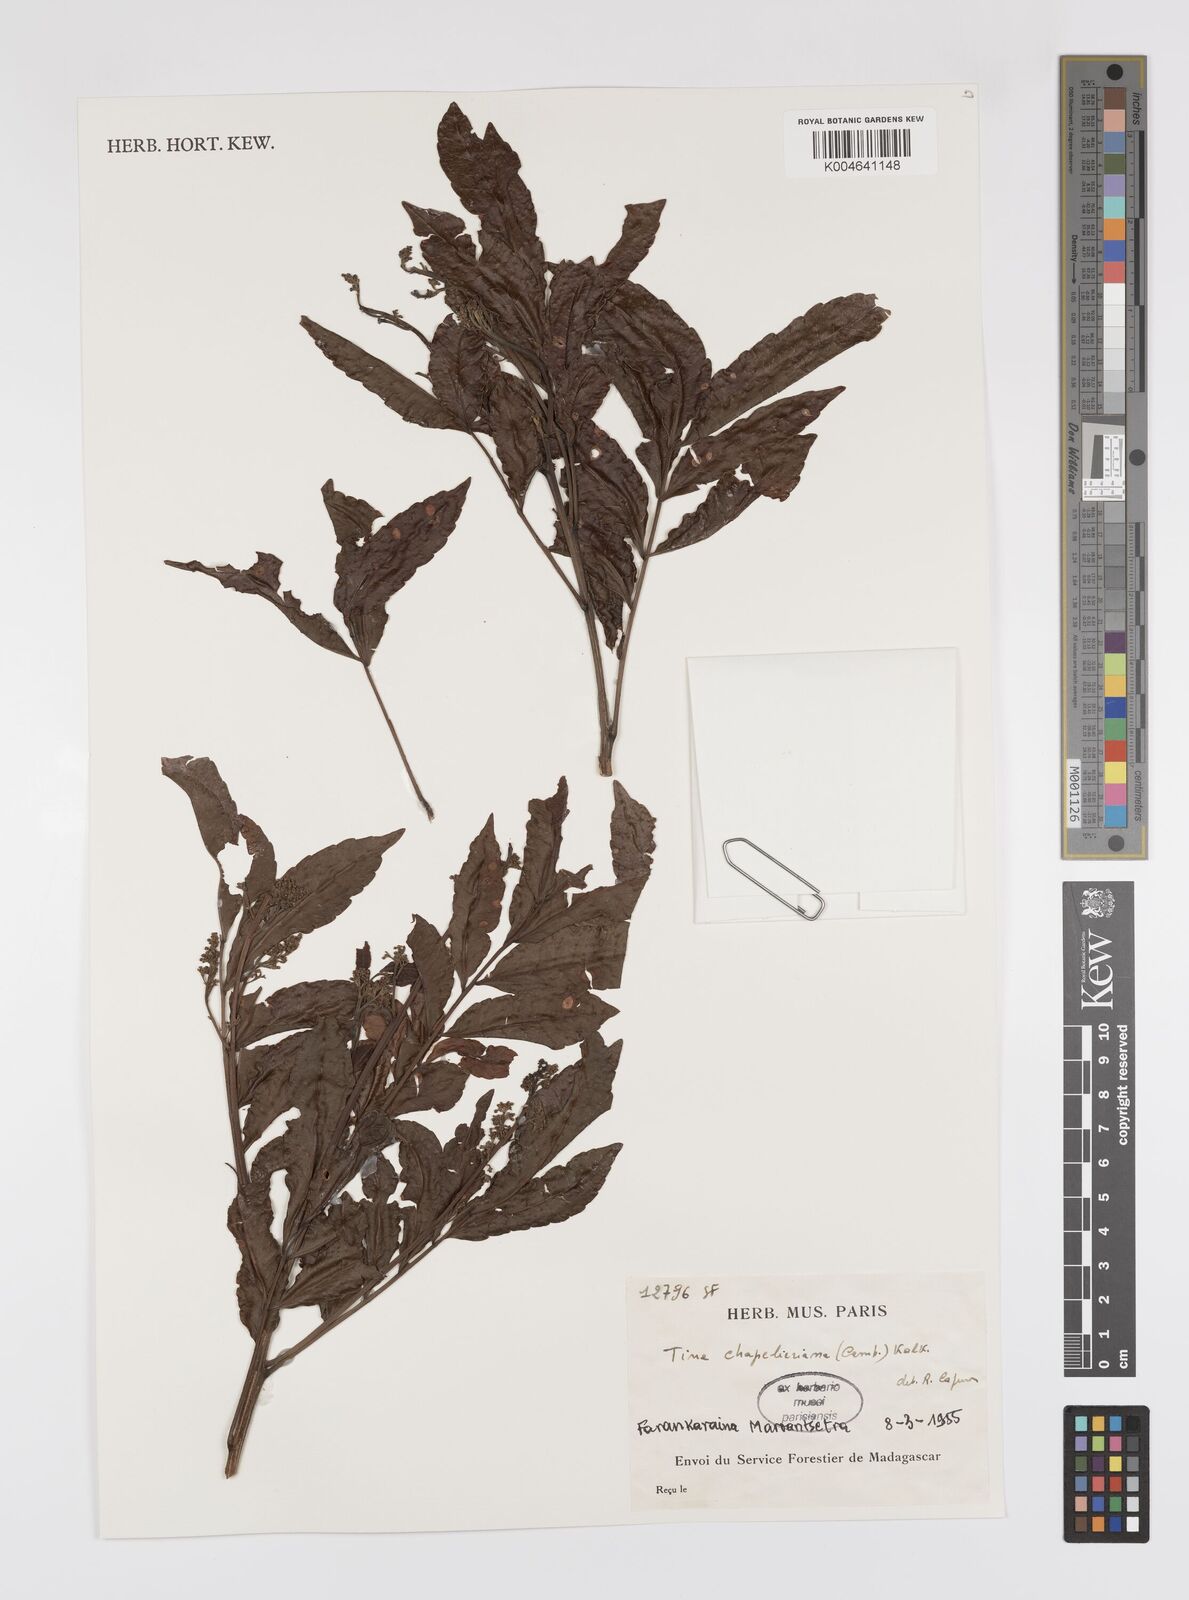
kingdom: Plantae
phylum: Tracheophyta
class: Magnoliopsida
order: Sapindales
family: Sapindaceae
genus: Tina
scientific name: Tina chapelieriana
